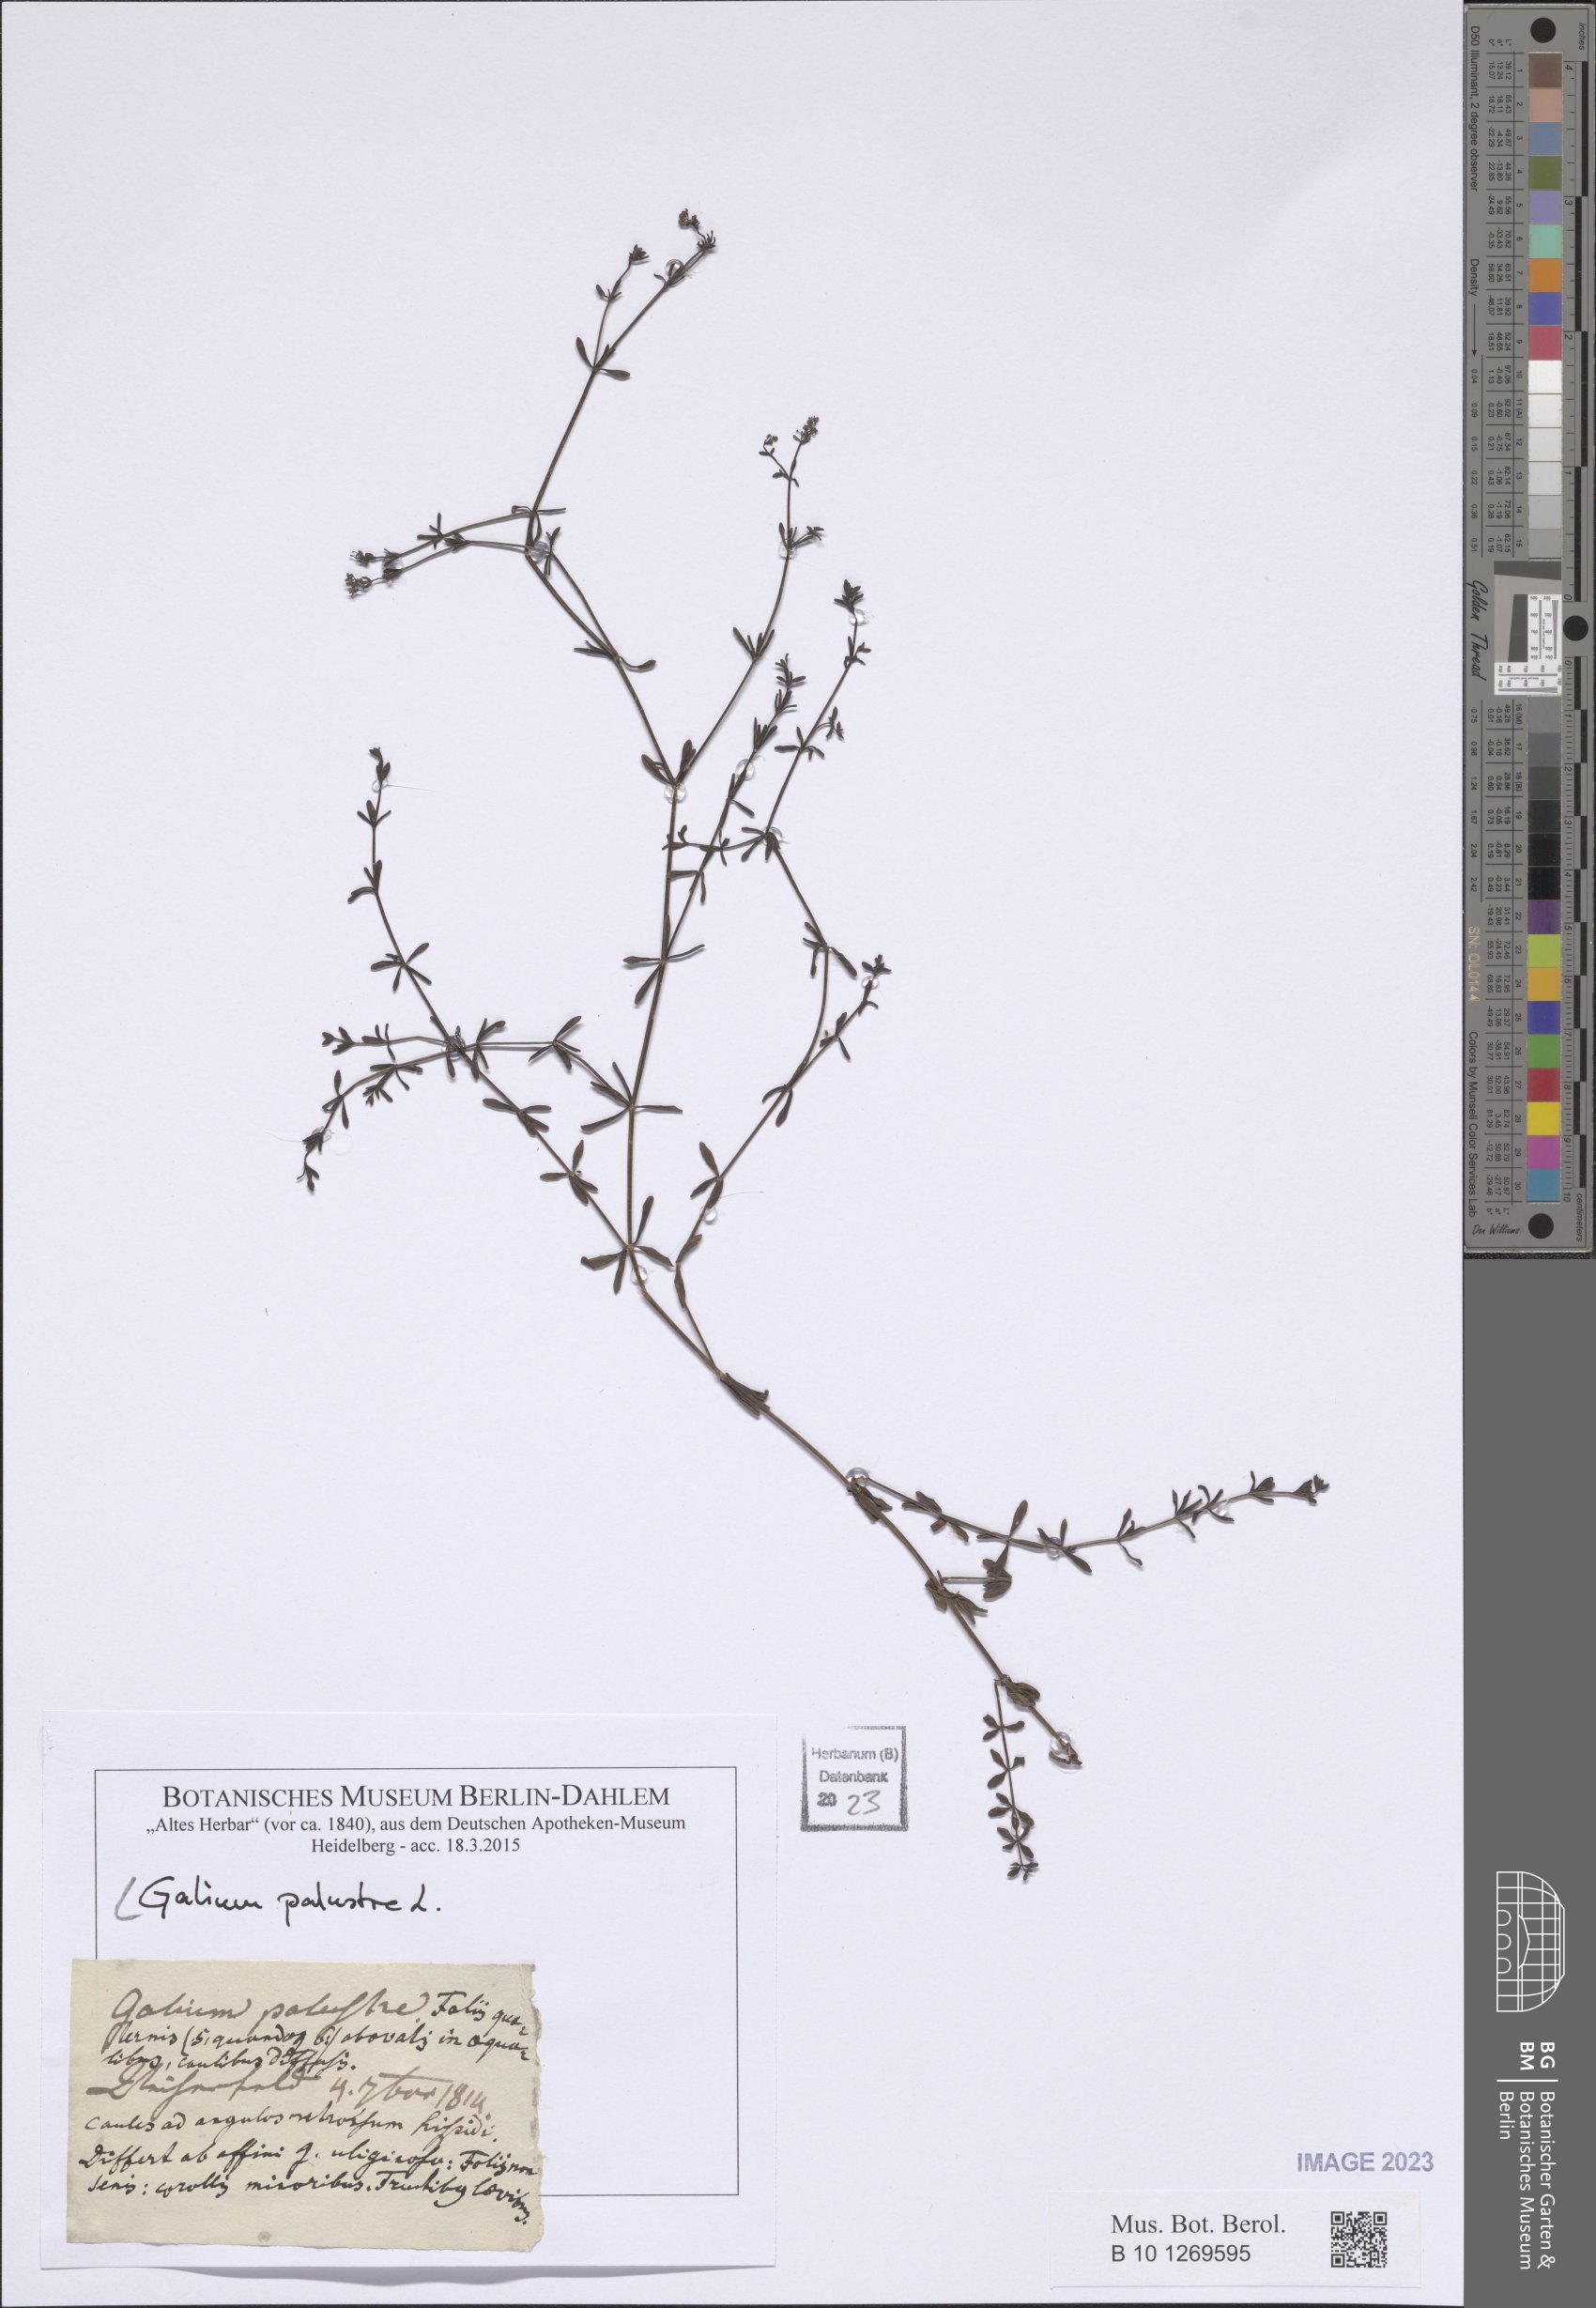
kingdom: Plantae
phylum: Tracheophyta
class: Magnoliopsida
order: Gentianales
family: Rubiaceae
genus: Galium
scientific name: Galium palustre
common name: Common marsh-bedstraw
